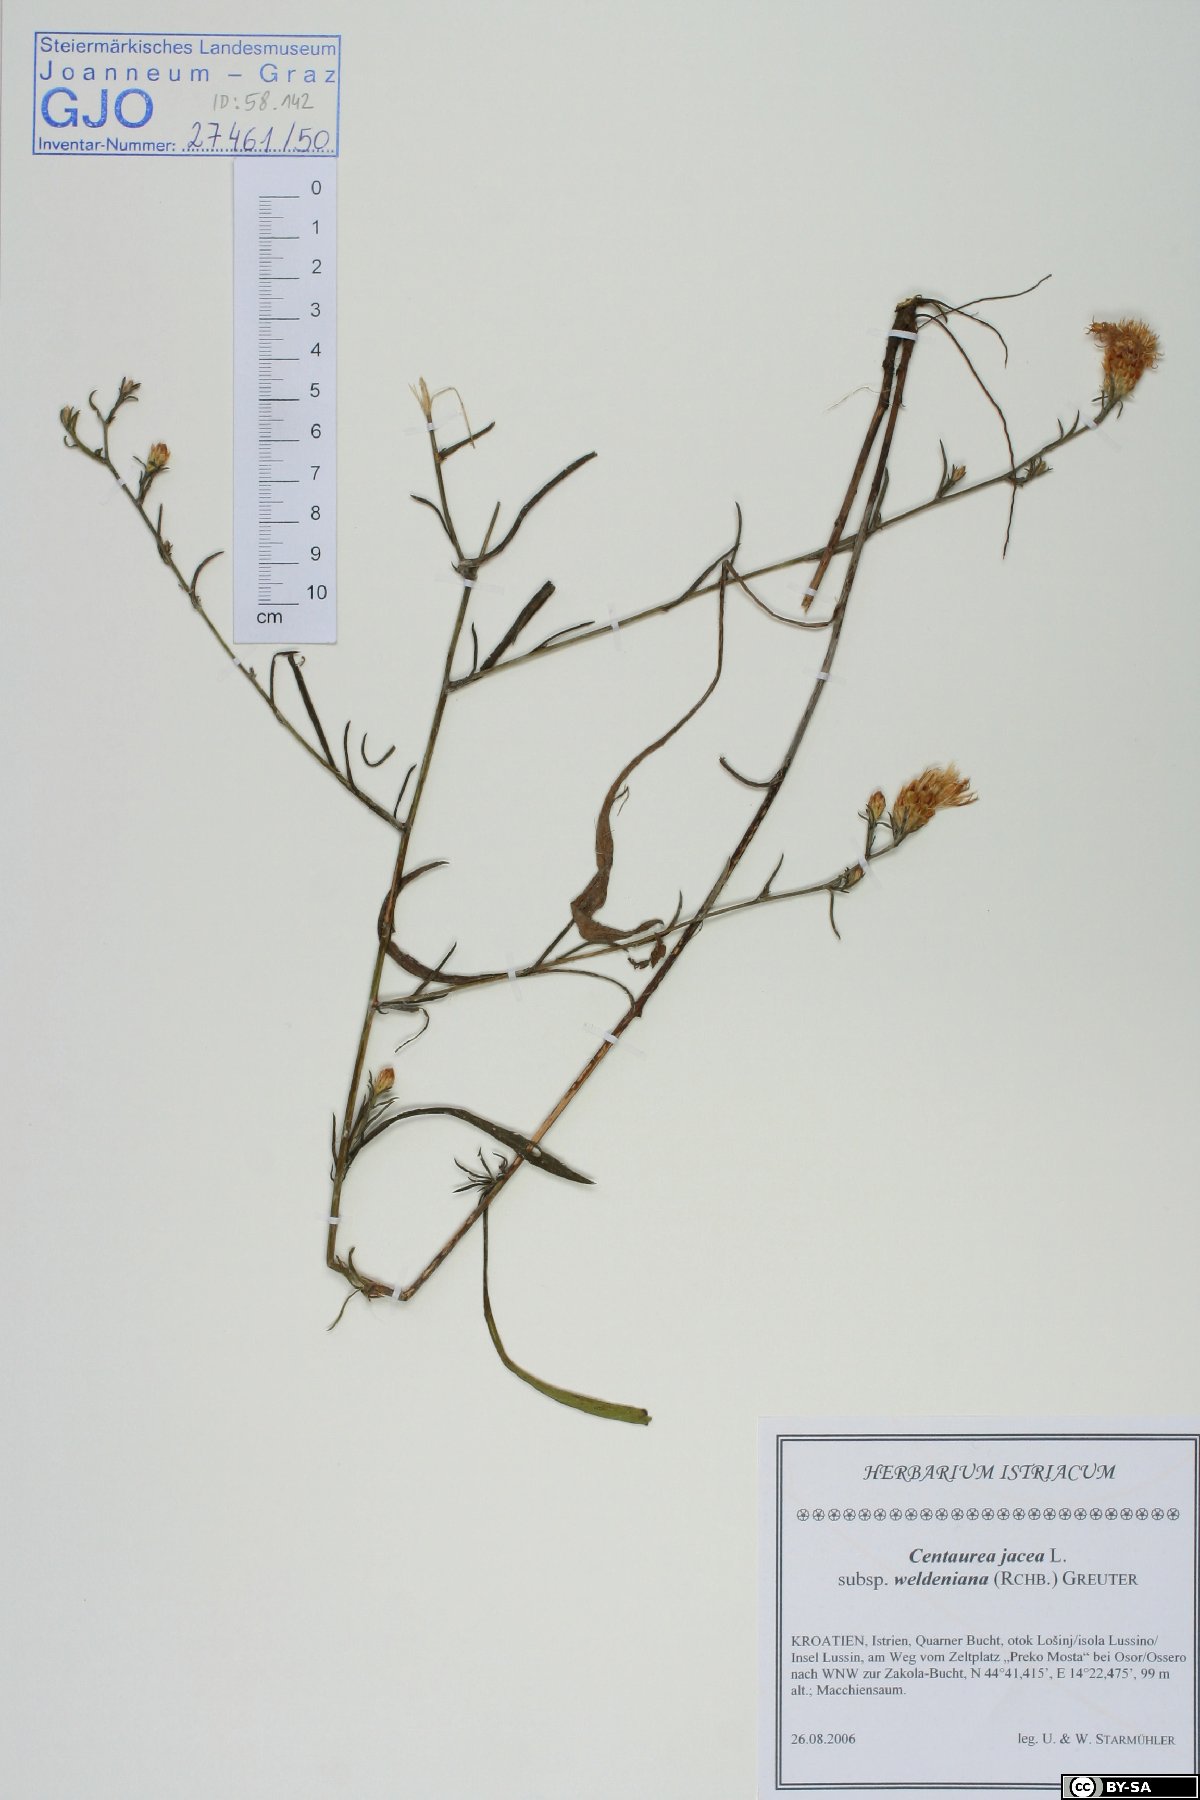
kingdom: Plantae
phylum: Tracheophyta
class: Magnoliopsida
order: Asterales
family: Asteraceae
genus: Centaurea
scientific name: Centaurea jacea
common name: Brown knapweed
